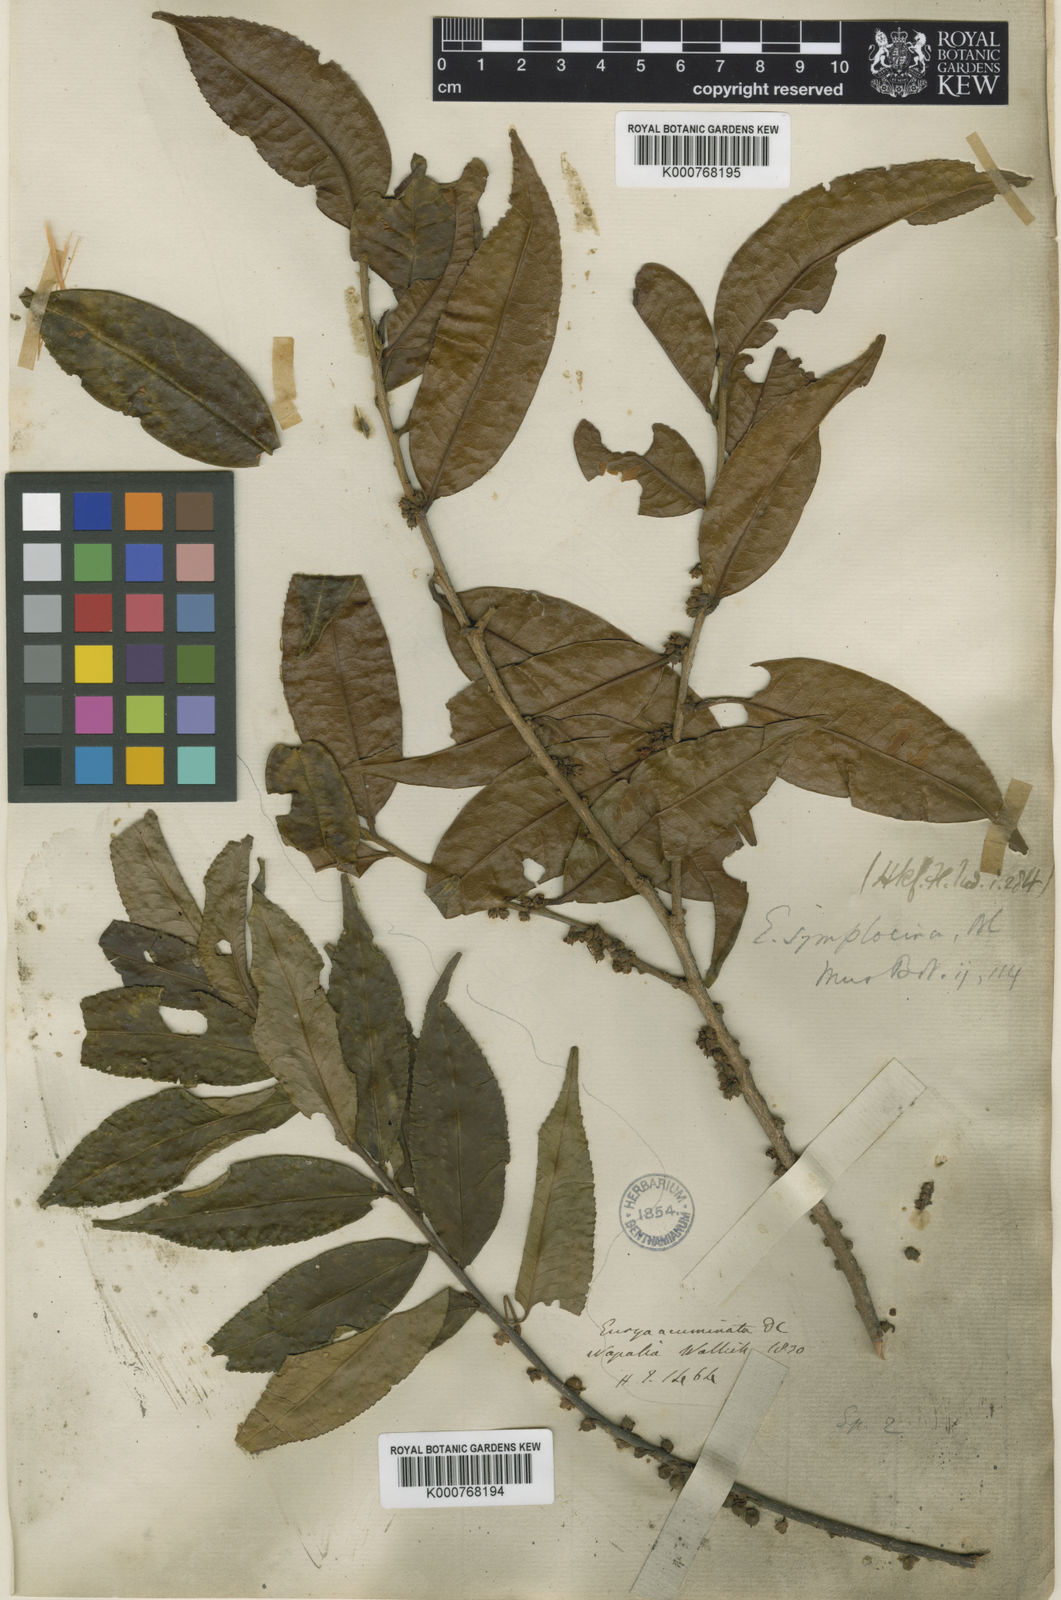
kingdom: Plantae
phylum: Tracheophyta
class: Magnoliopsida
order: Ericales
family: Pentaphylacaceae
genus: Eurya
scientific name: Eurya acuminata
